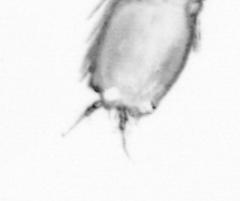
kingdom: Animalia
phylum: Arthropoda
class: Copepoda
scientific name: Copepoda
